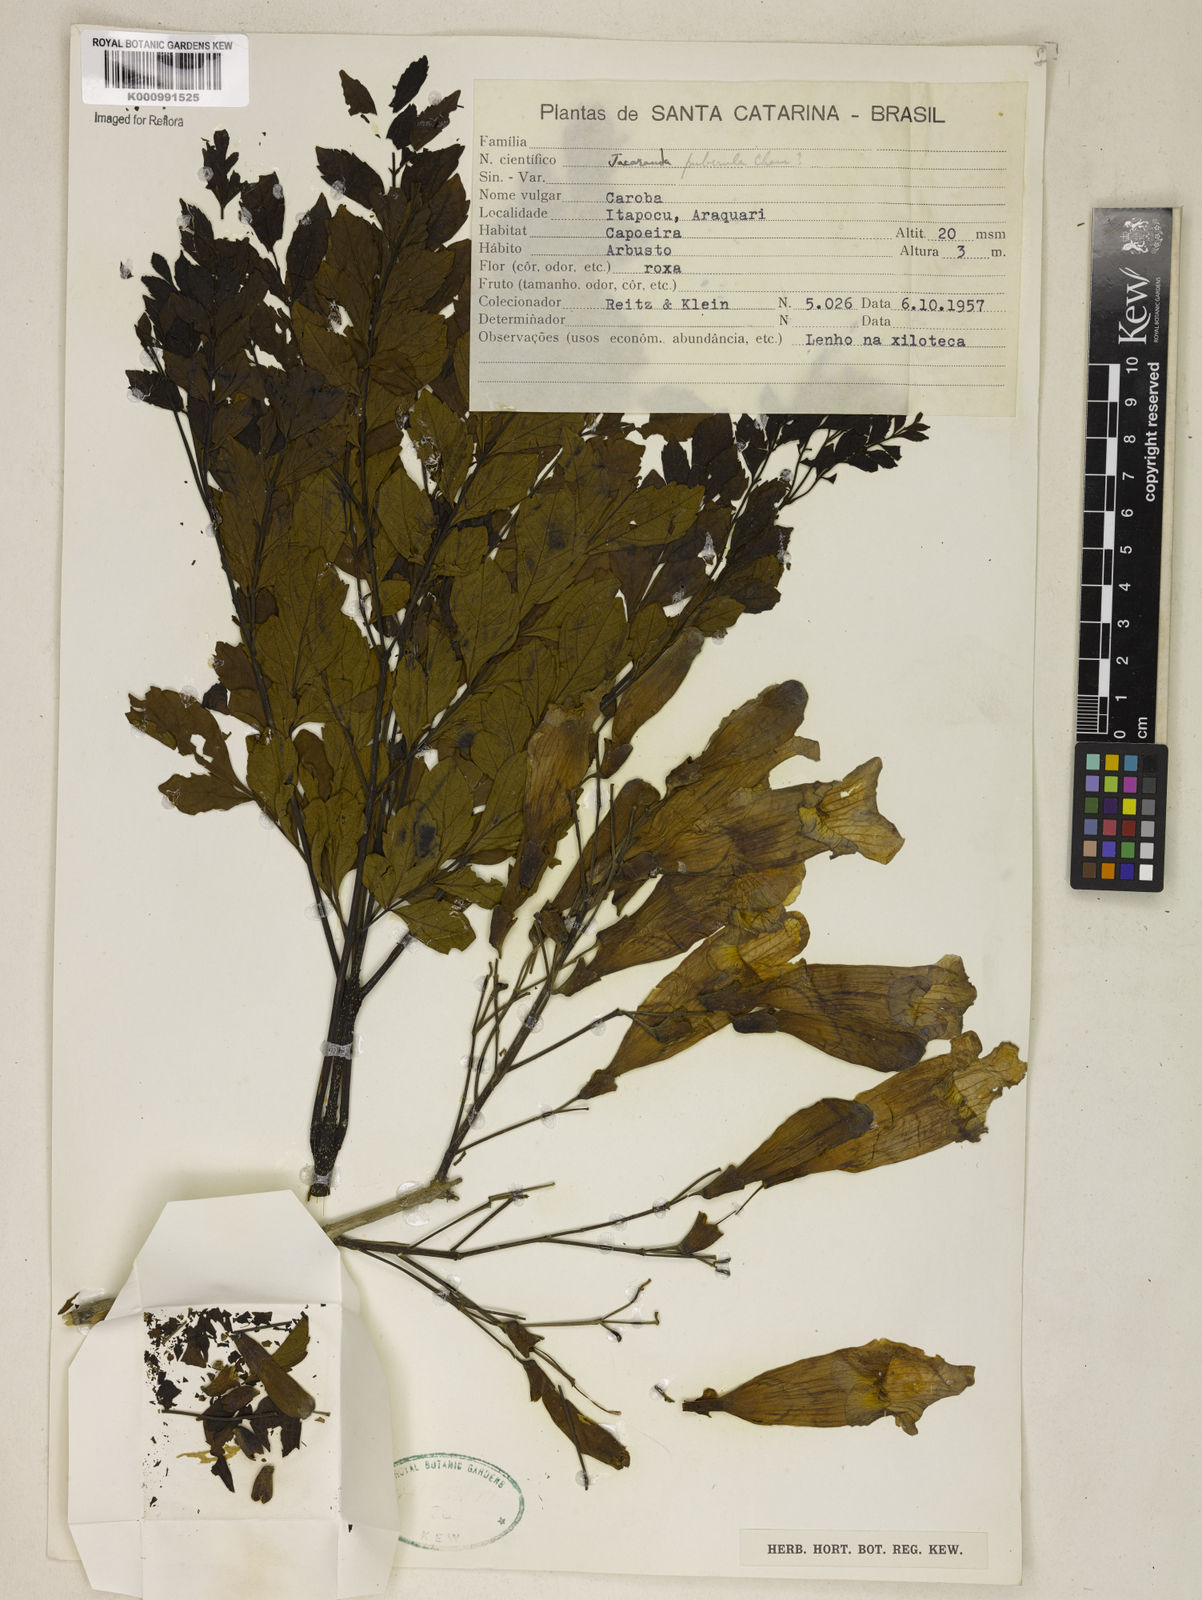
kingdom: Plantae
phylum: Tracheophyta
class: Magnoliopsida
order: Lamiales
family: Bignoniaceae
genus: Jacaranda
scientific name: Jacaranda puberula
